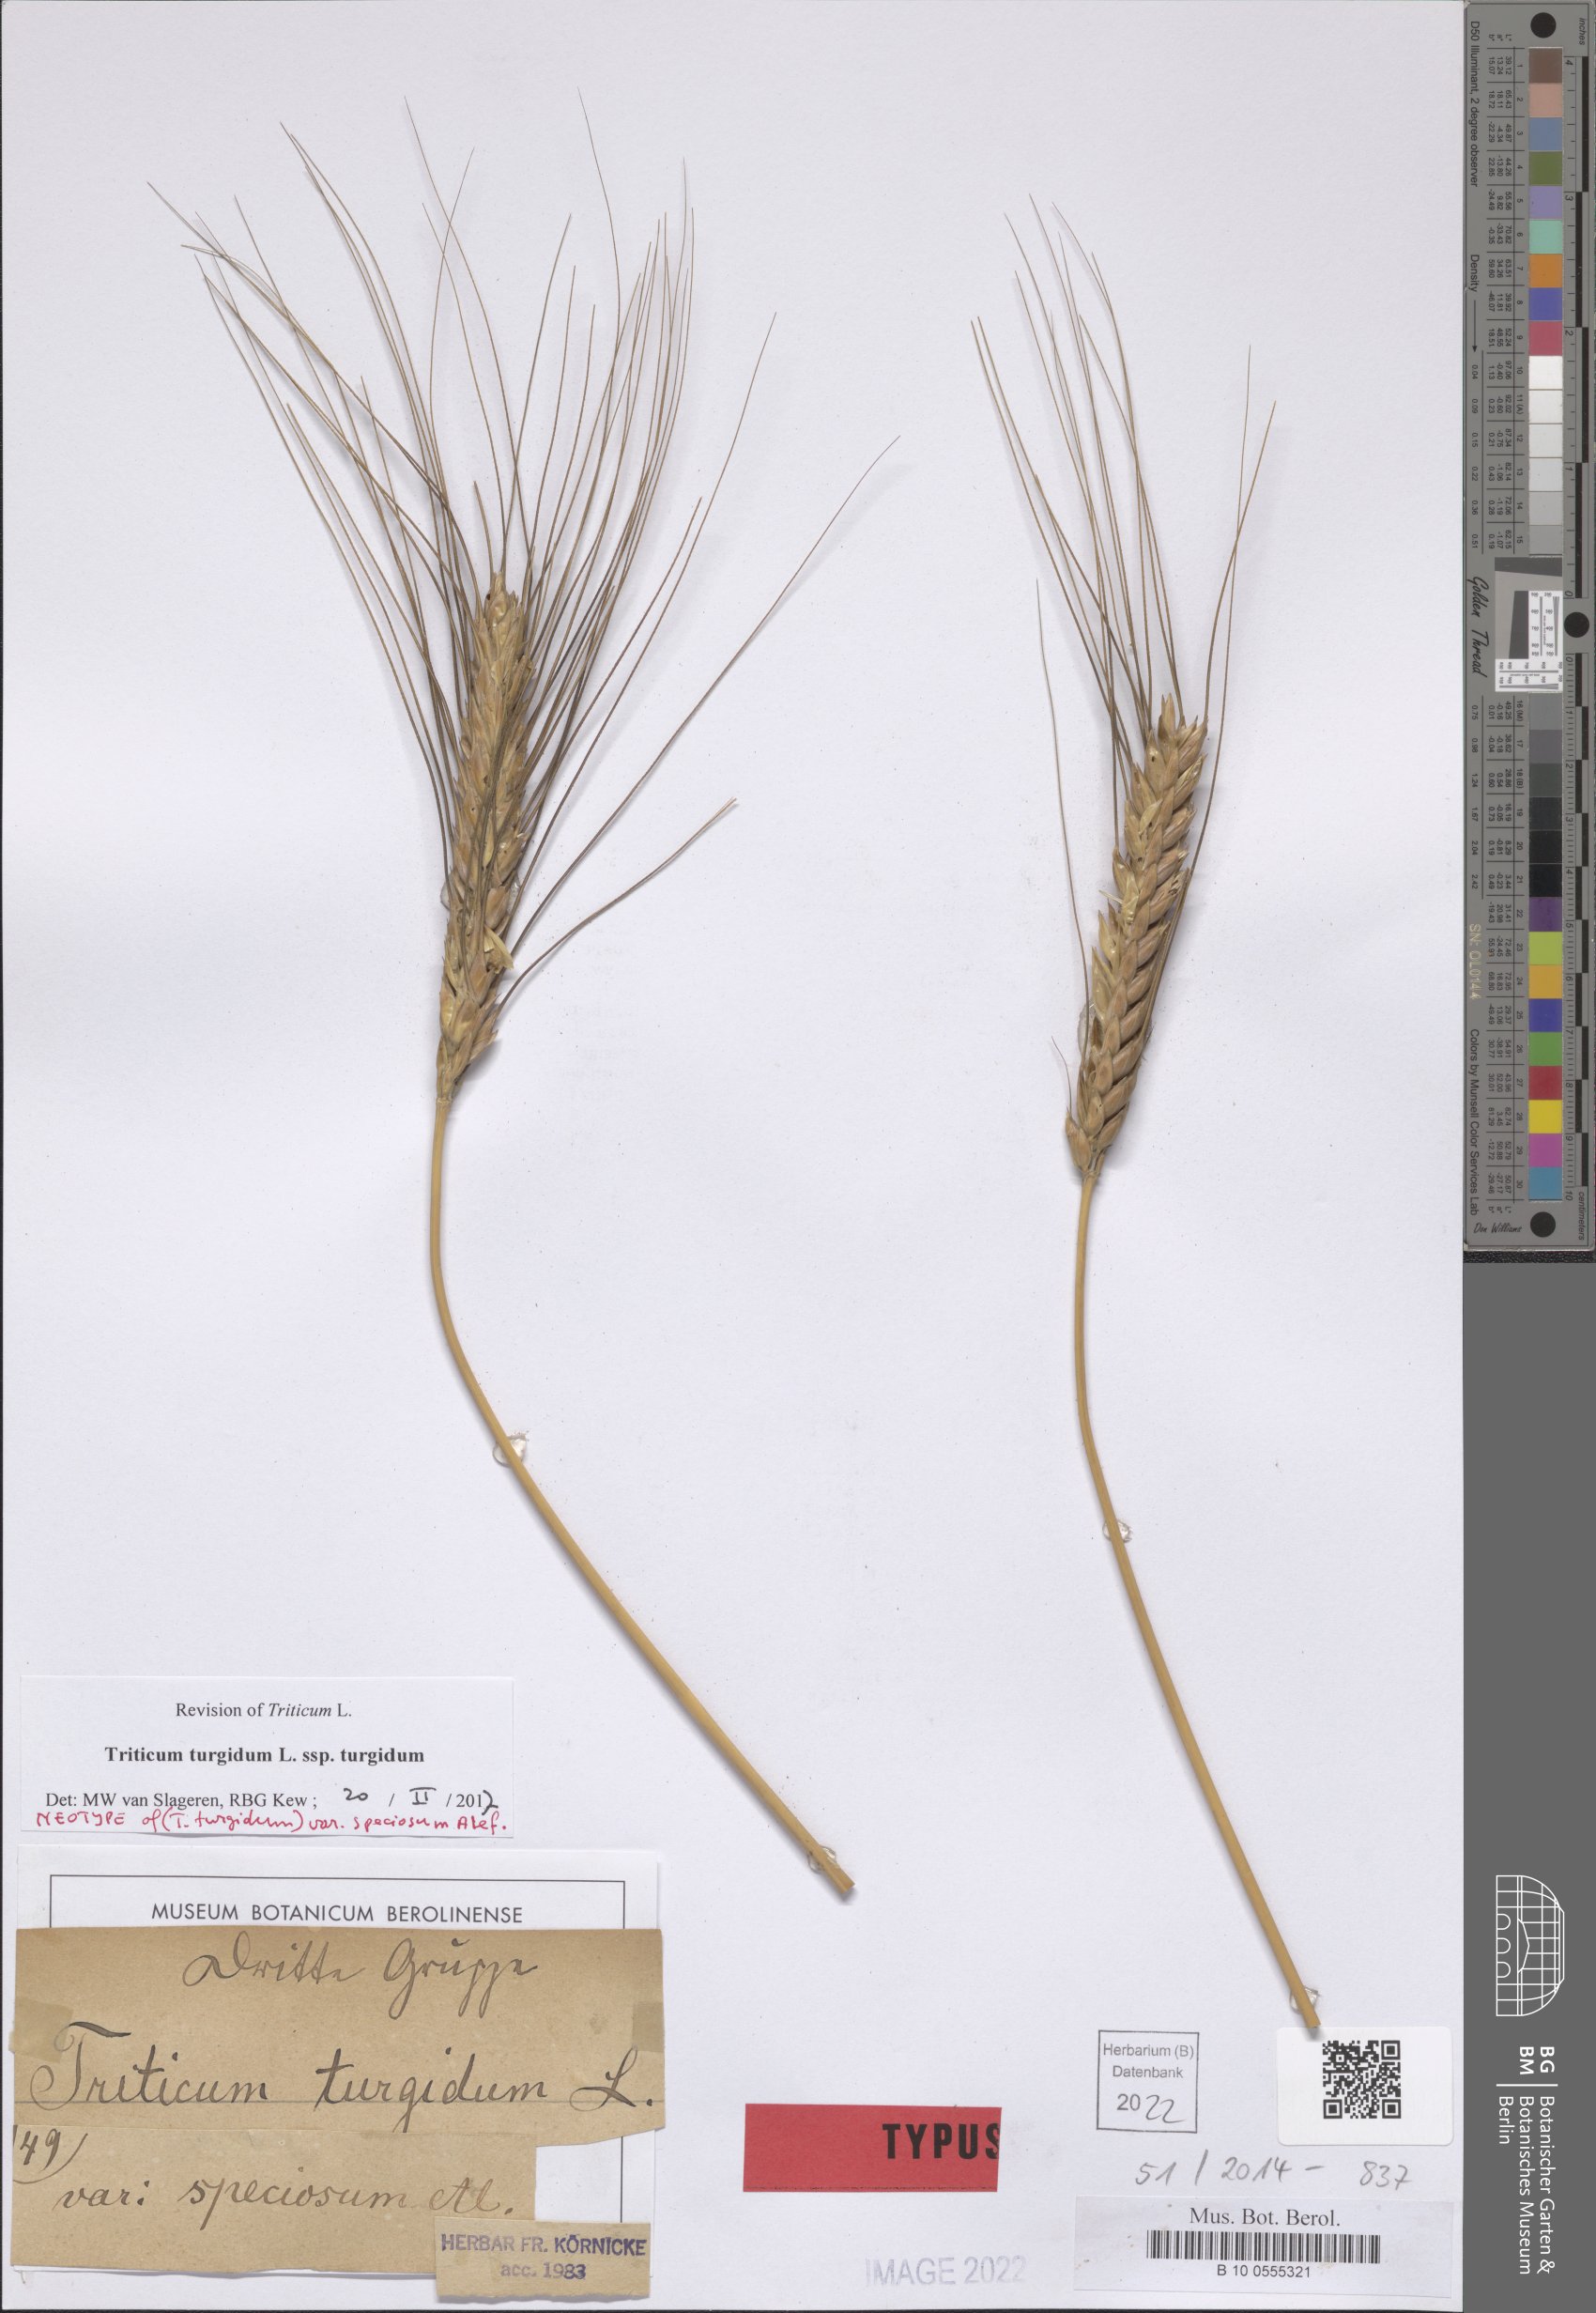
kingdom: Plantae
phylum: Tracheophyta
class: Liliopsida
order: Poales
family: Poaceae
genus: Triticum
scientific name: Triticum turgidum
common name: Rivet wheat
